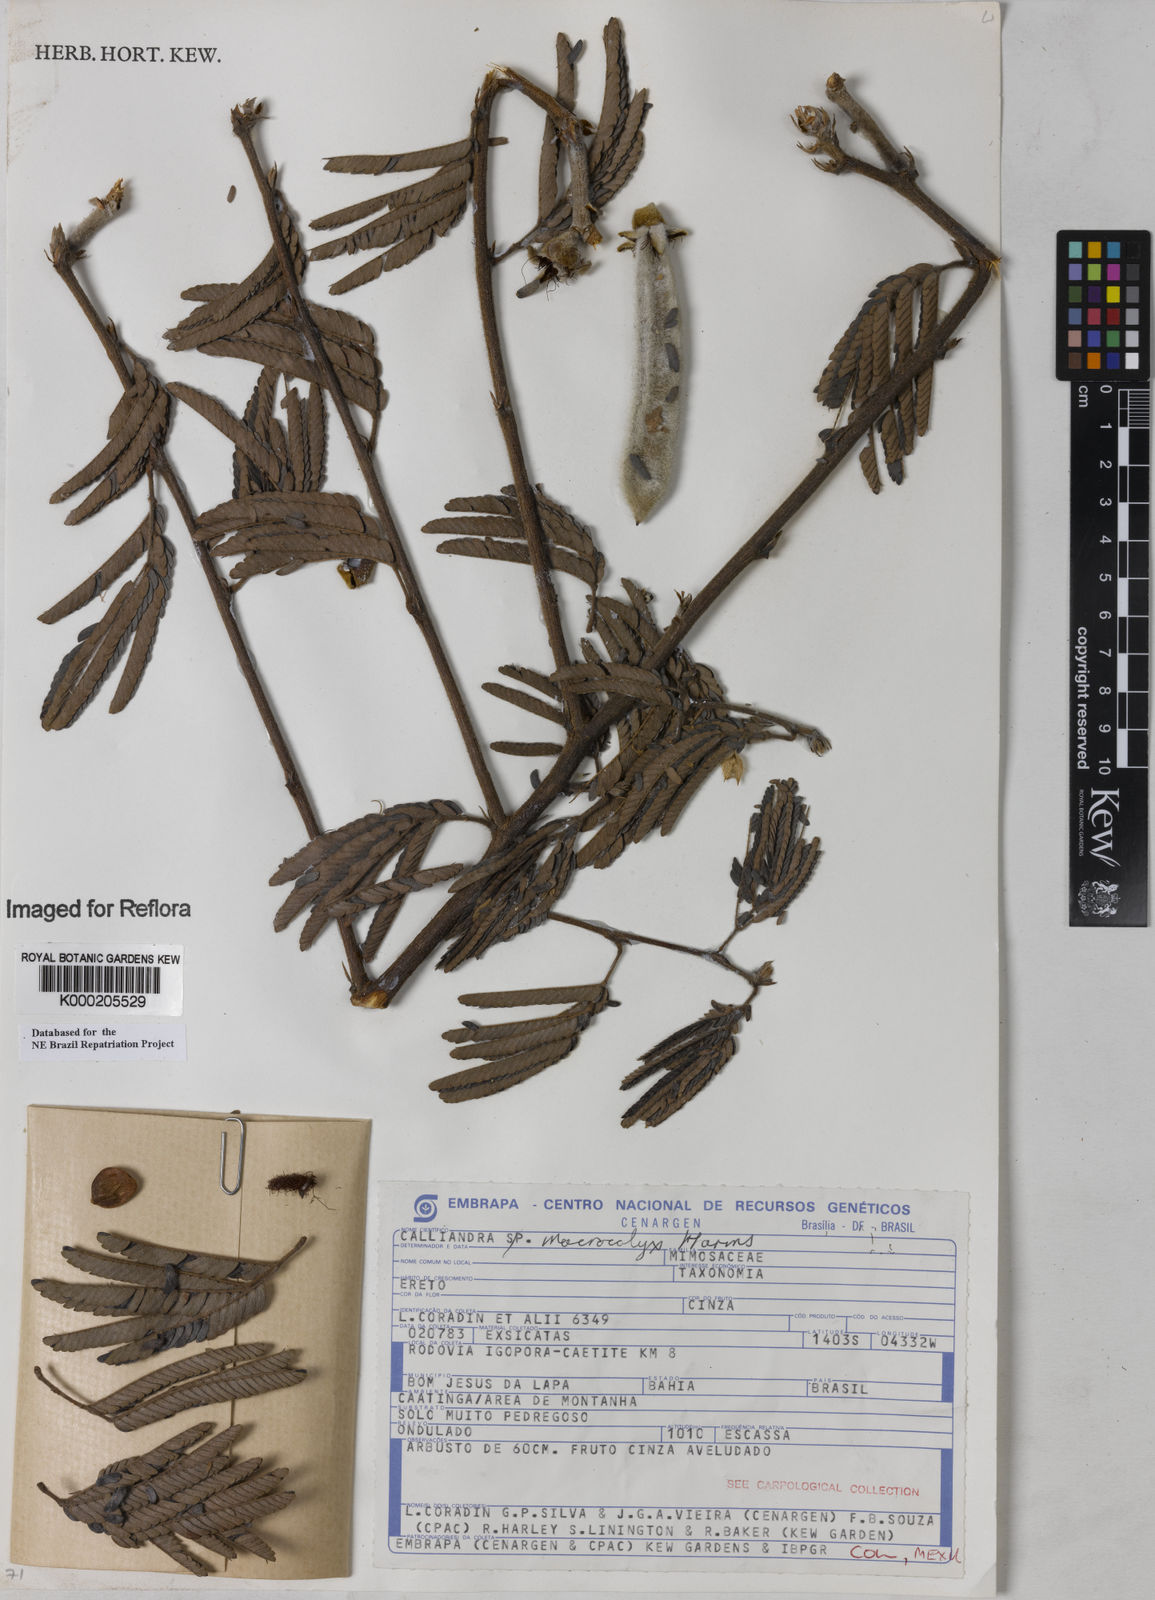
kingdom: Plantae
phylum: Tracheophyta
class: Magnoliopsida
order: Fabales
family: Fabaceae
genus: Calliandra
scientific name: Calliandra macrocalyx
